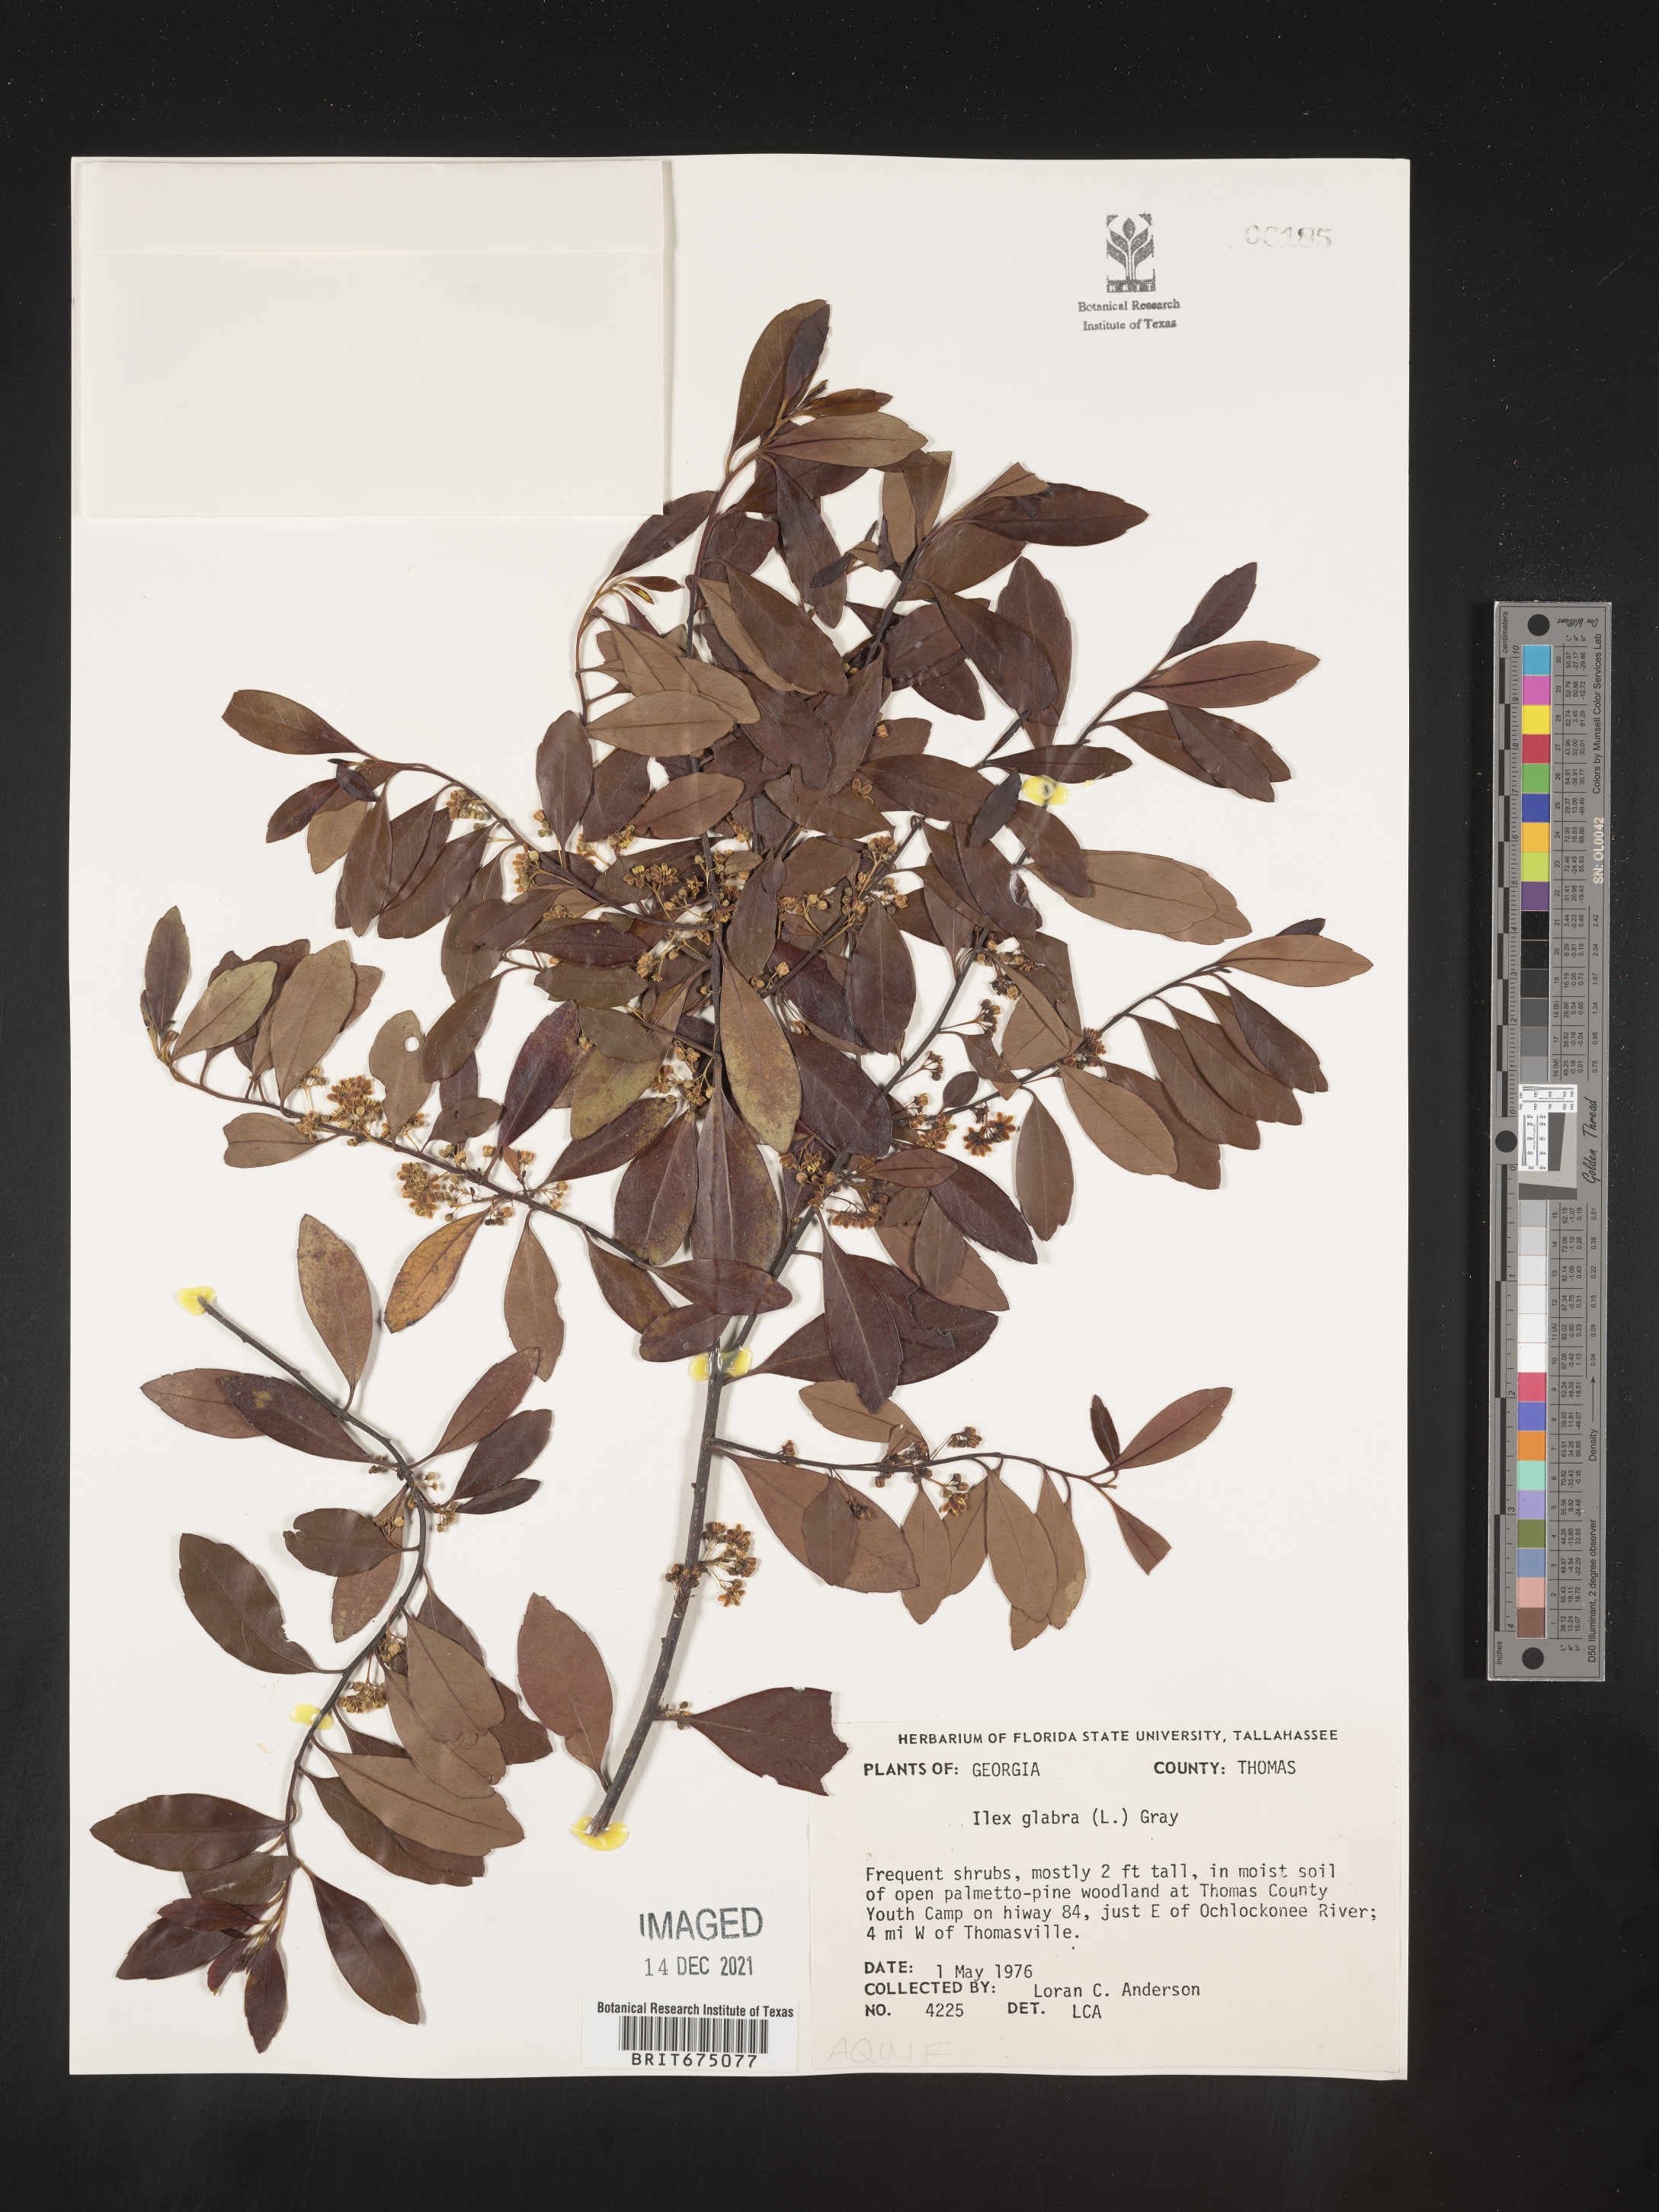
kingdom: Plantae
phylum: Tracheophyta
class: Magnoliopsida
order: Aquifoliales
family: Aquifoliaceae
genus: Ilex
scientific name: Ilex glabra
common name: Bitter gallberry
